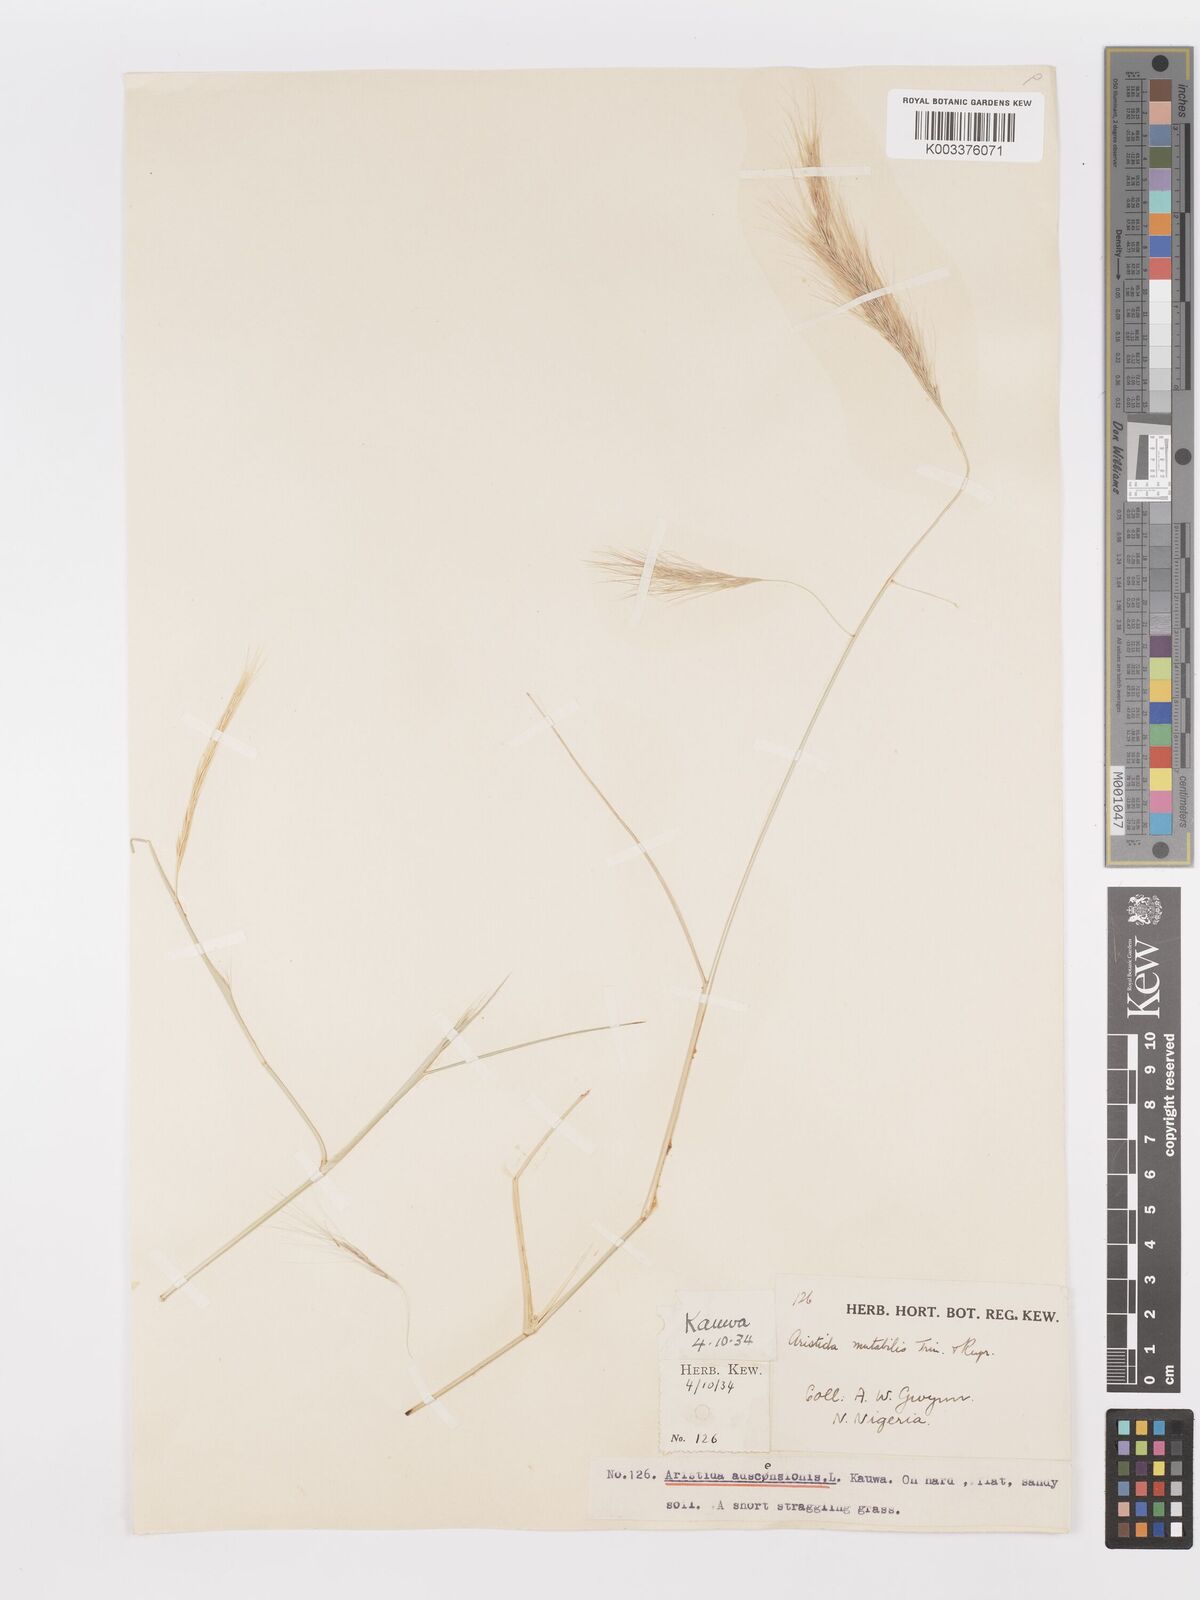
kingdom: Plantae
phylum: Tracheophyta
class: Liliopsida
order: Poales
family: Poaceae
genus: Aristida
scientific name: Aristida mutabilis
